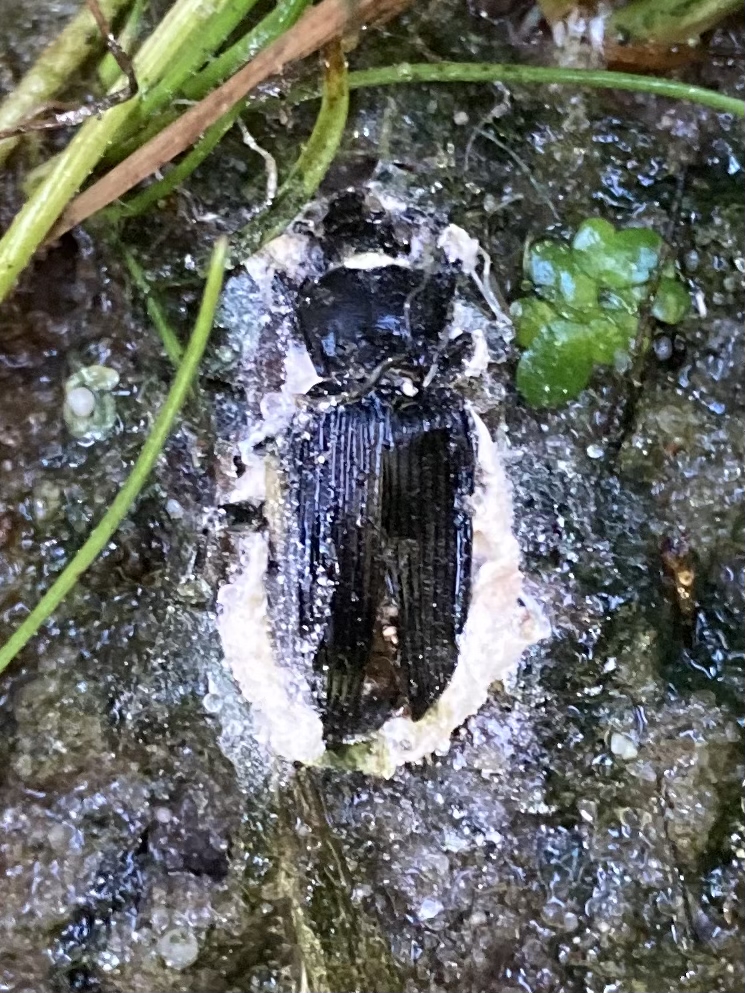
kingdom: Fungi
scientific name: Fungi
